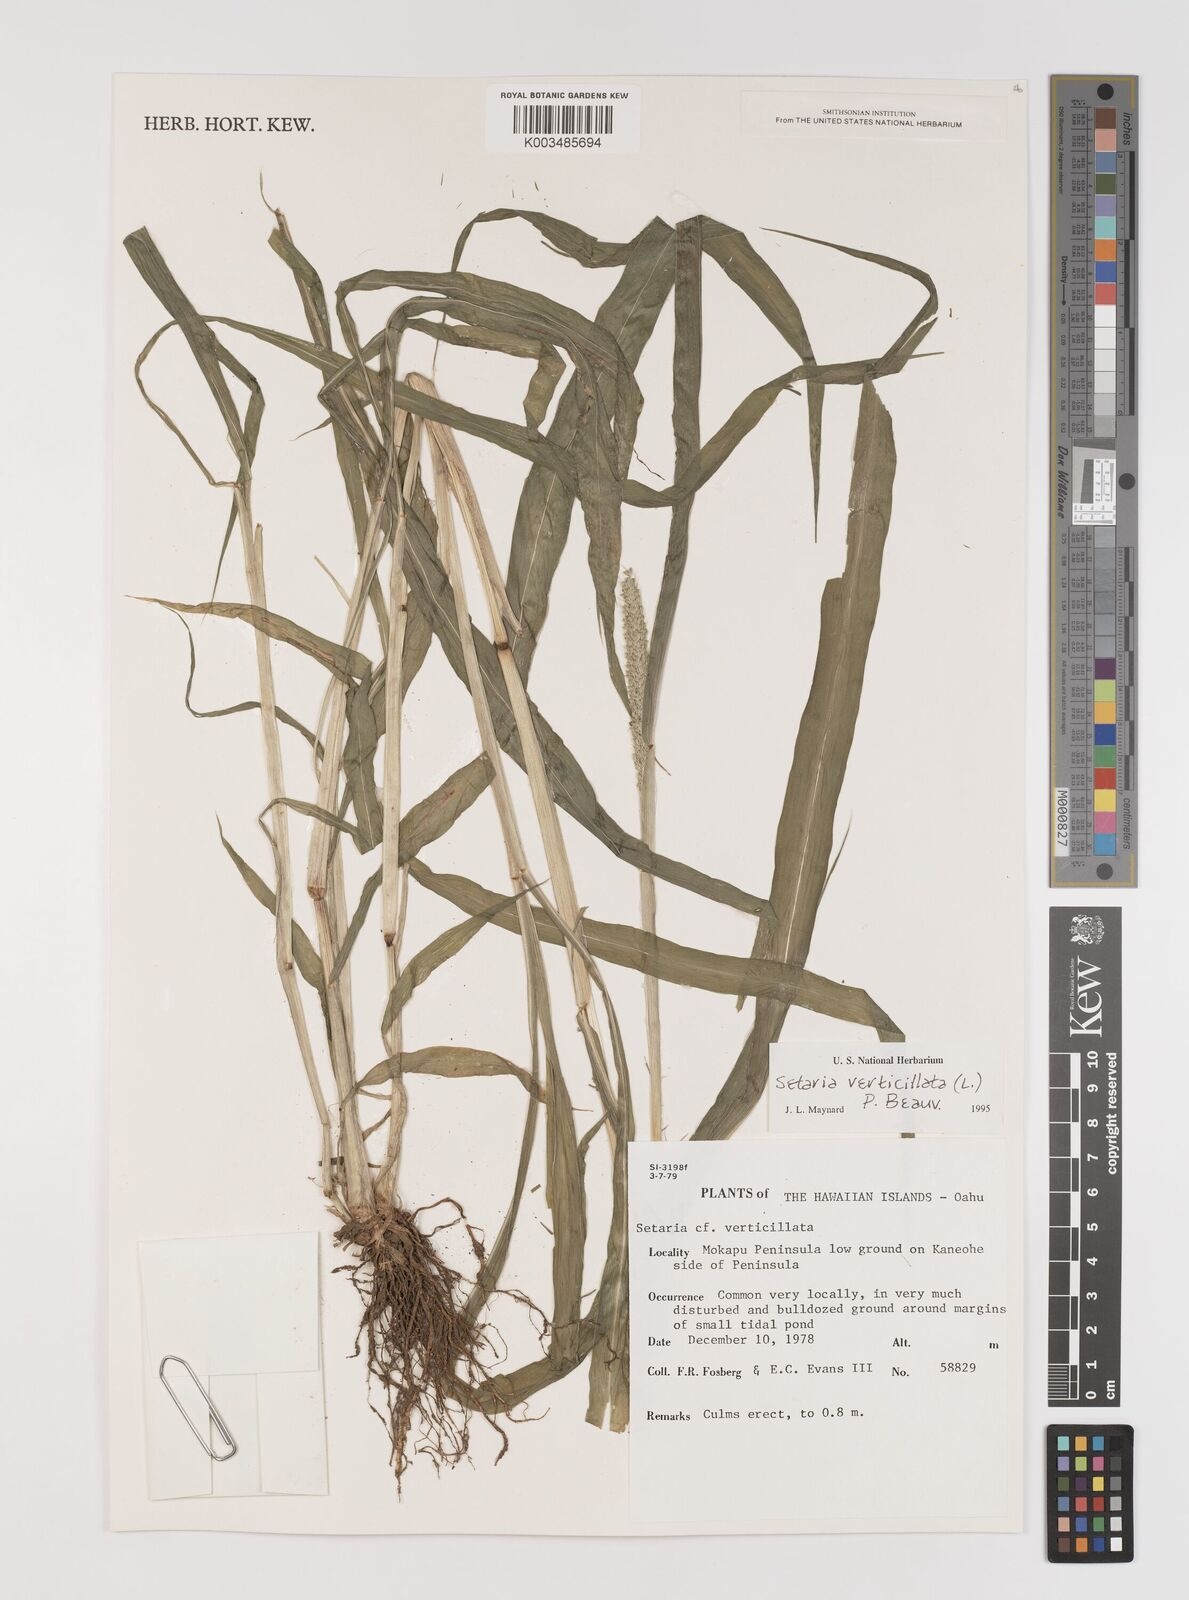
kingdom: Plantae
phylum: Tracheophyta
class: Liliopsida
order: Poales
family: Poaceae
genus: Setaria
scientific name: Setaria verticillata
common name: Hooked bristlegrass
